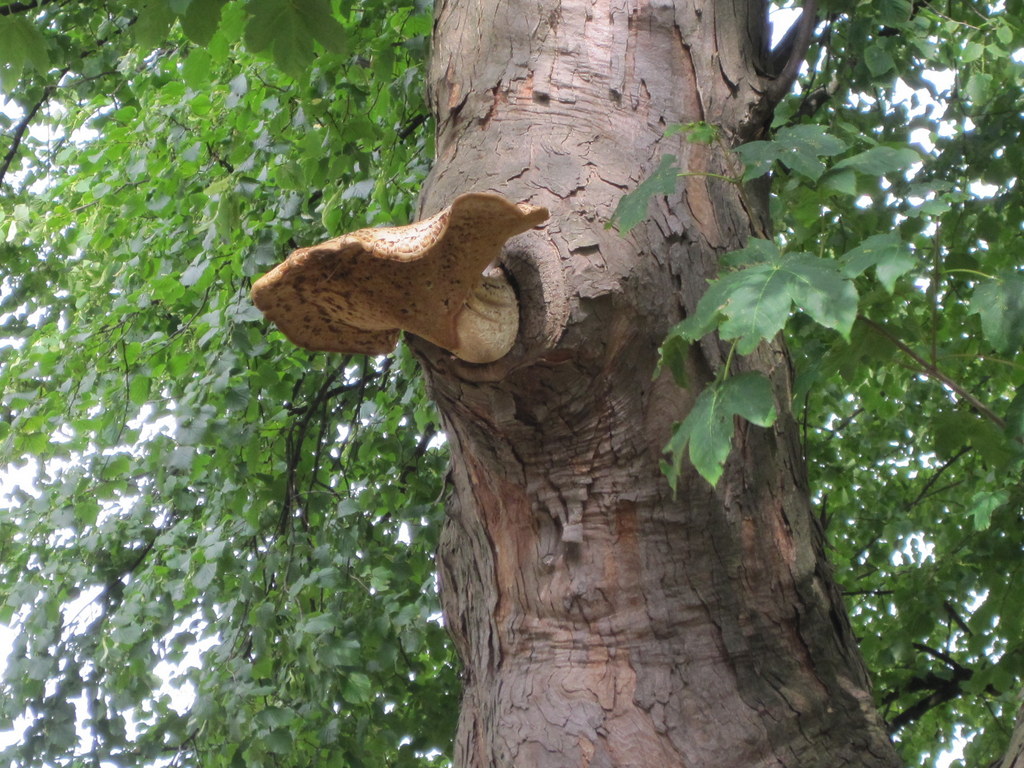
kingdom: Fungi
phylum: Basidiomycota
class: Agaricomycetes
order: Polyporales
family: Polyporaceae
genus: Cerioporus
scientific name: Cerioporus squamosus
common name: skællet stilkporesvamp
